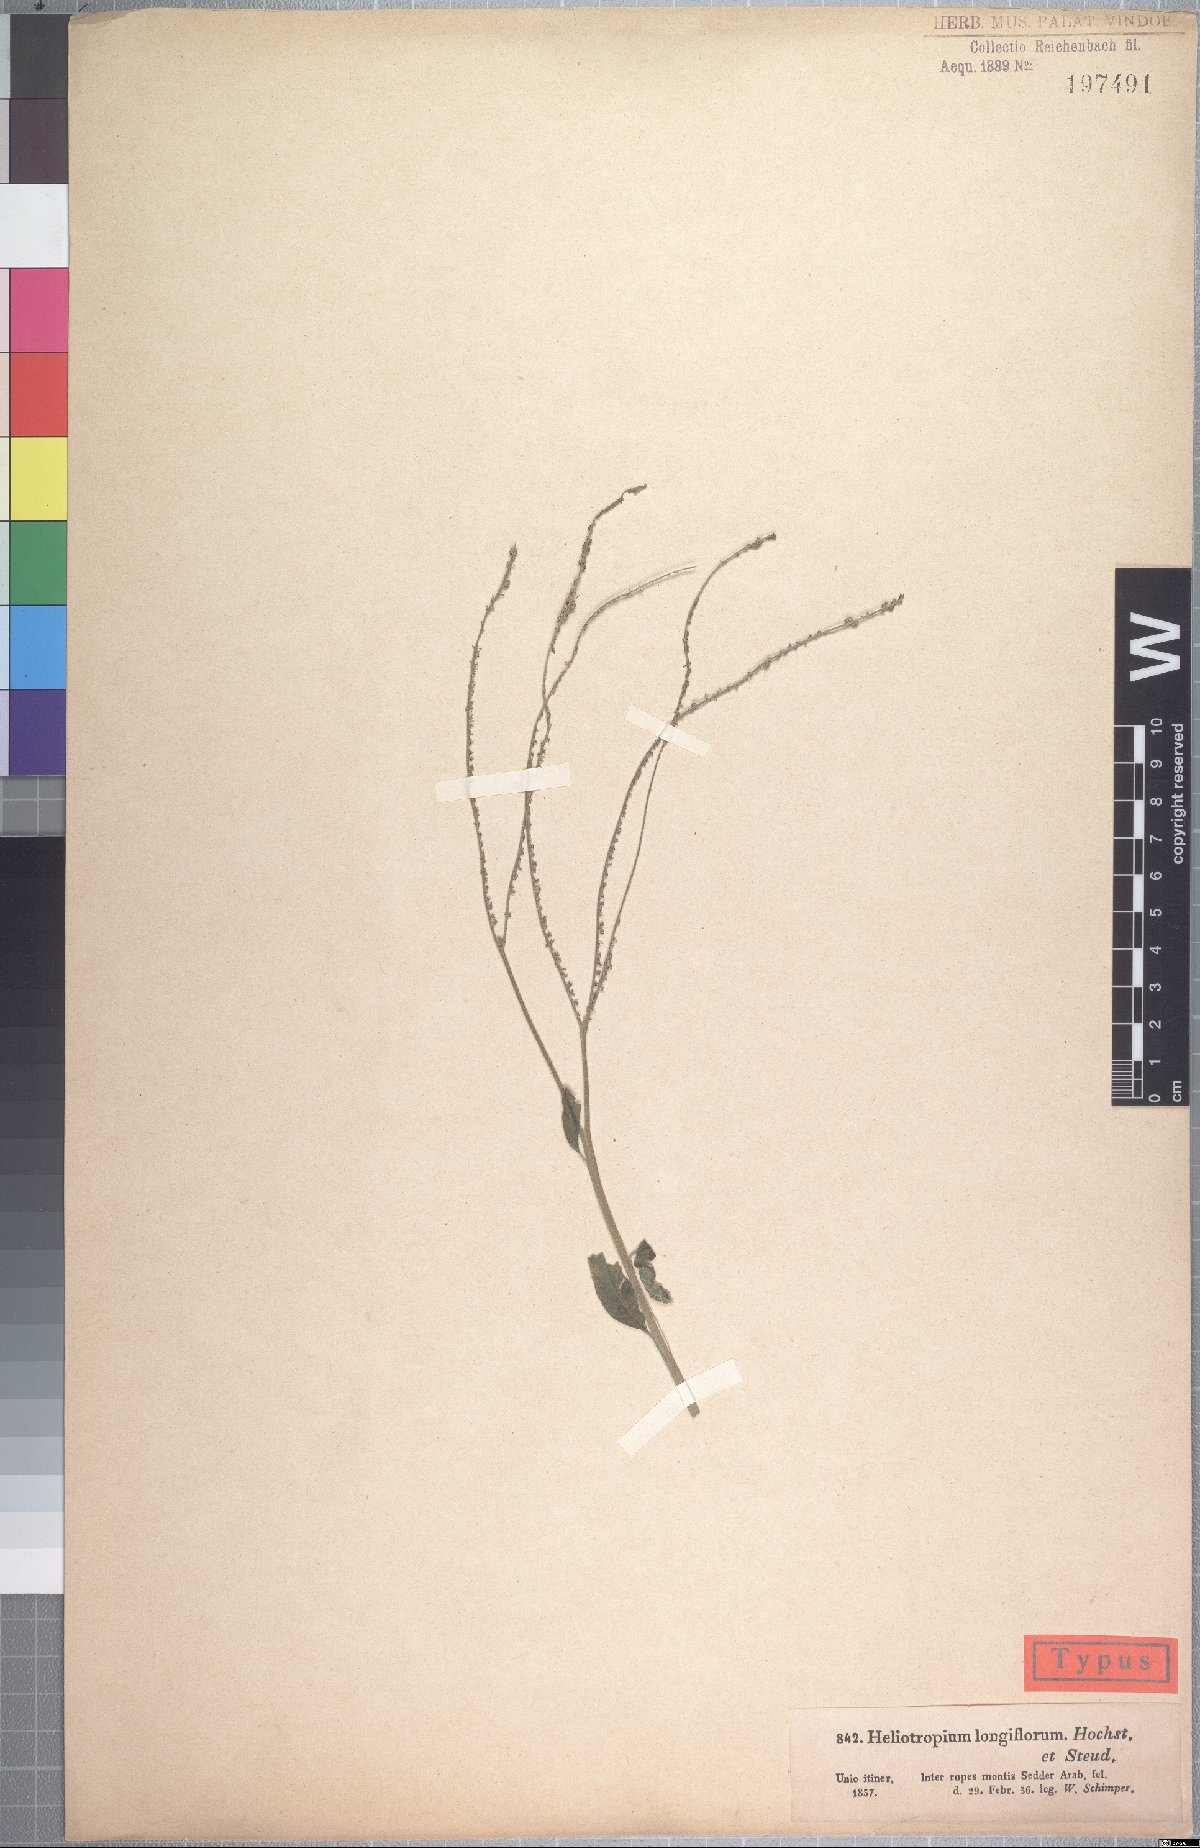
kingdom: Plantae
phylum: Tracheophyta
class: Magnoliopsida
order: Boraginales
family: Heliotropiaceae
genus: Heliotropium
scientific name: Heliotropium longiflorum
